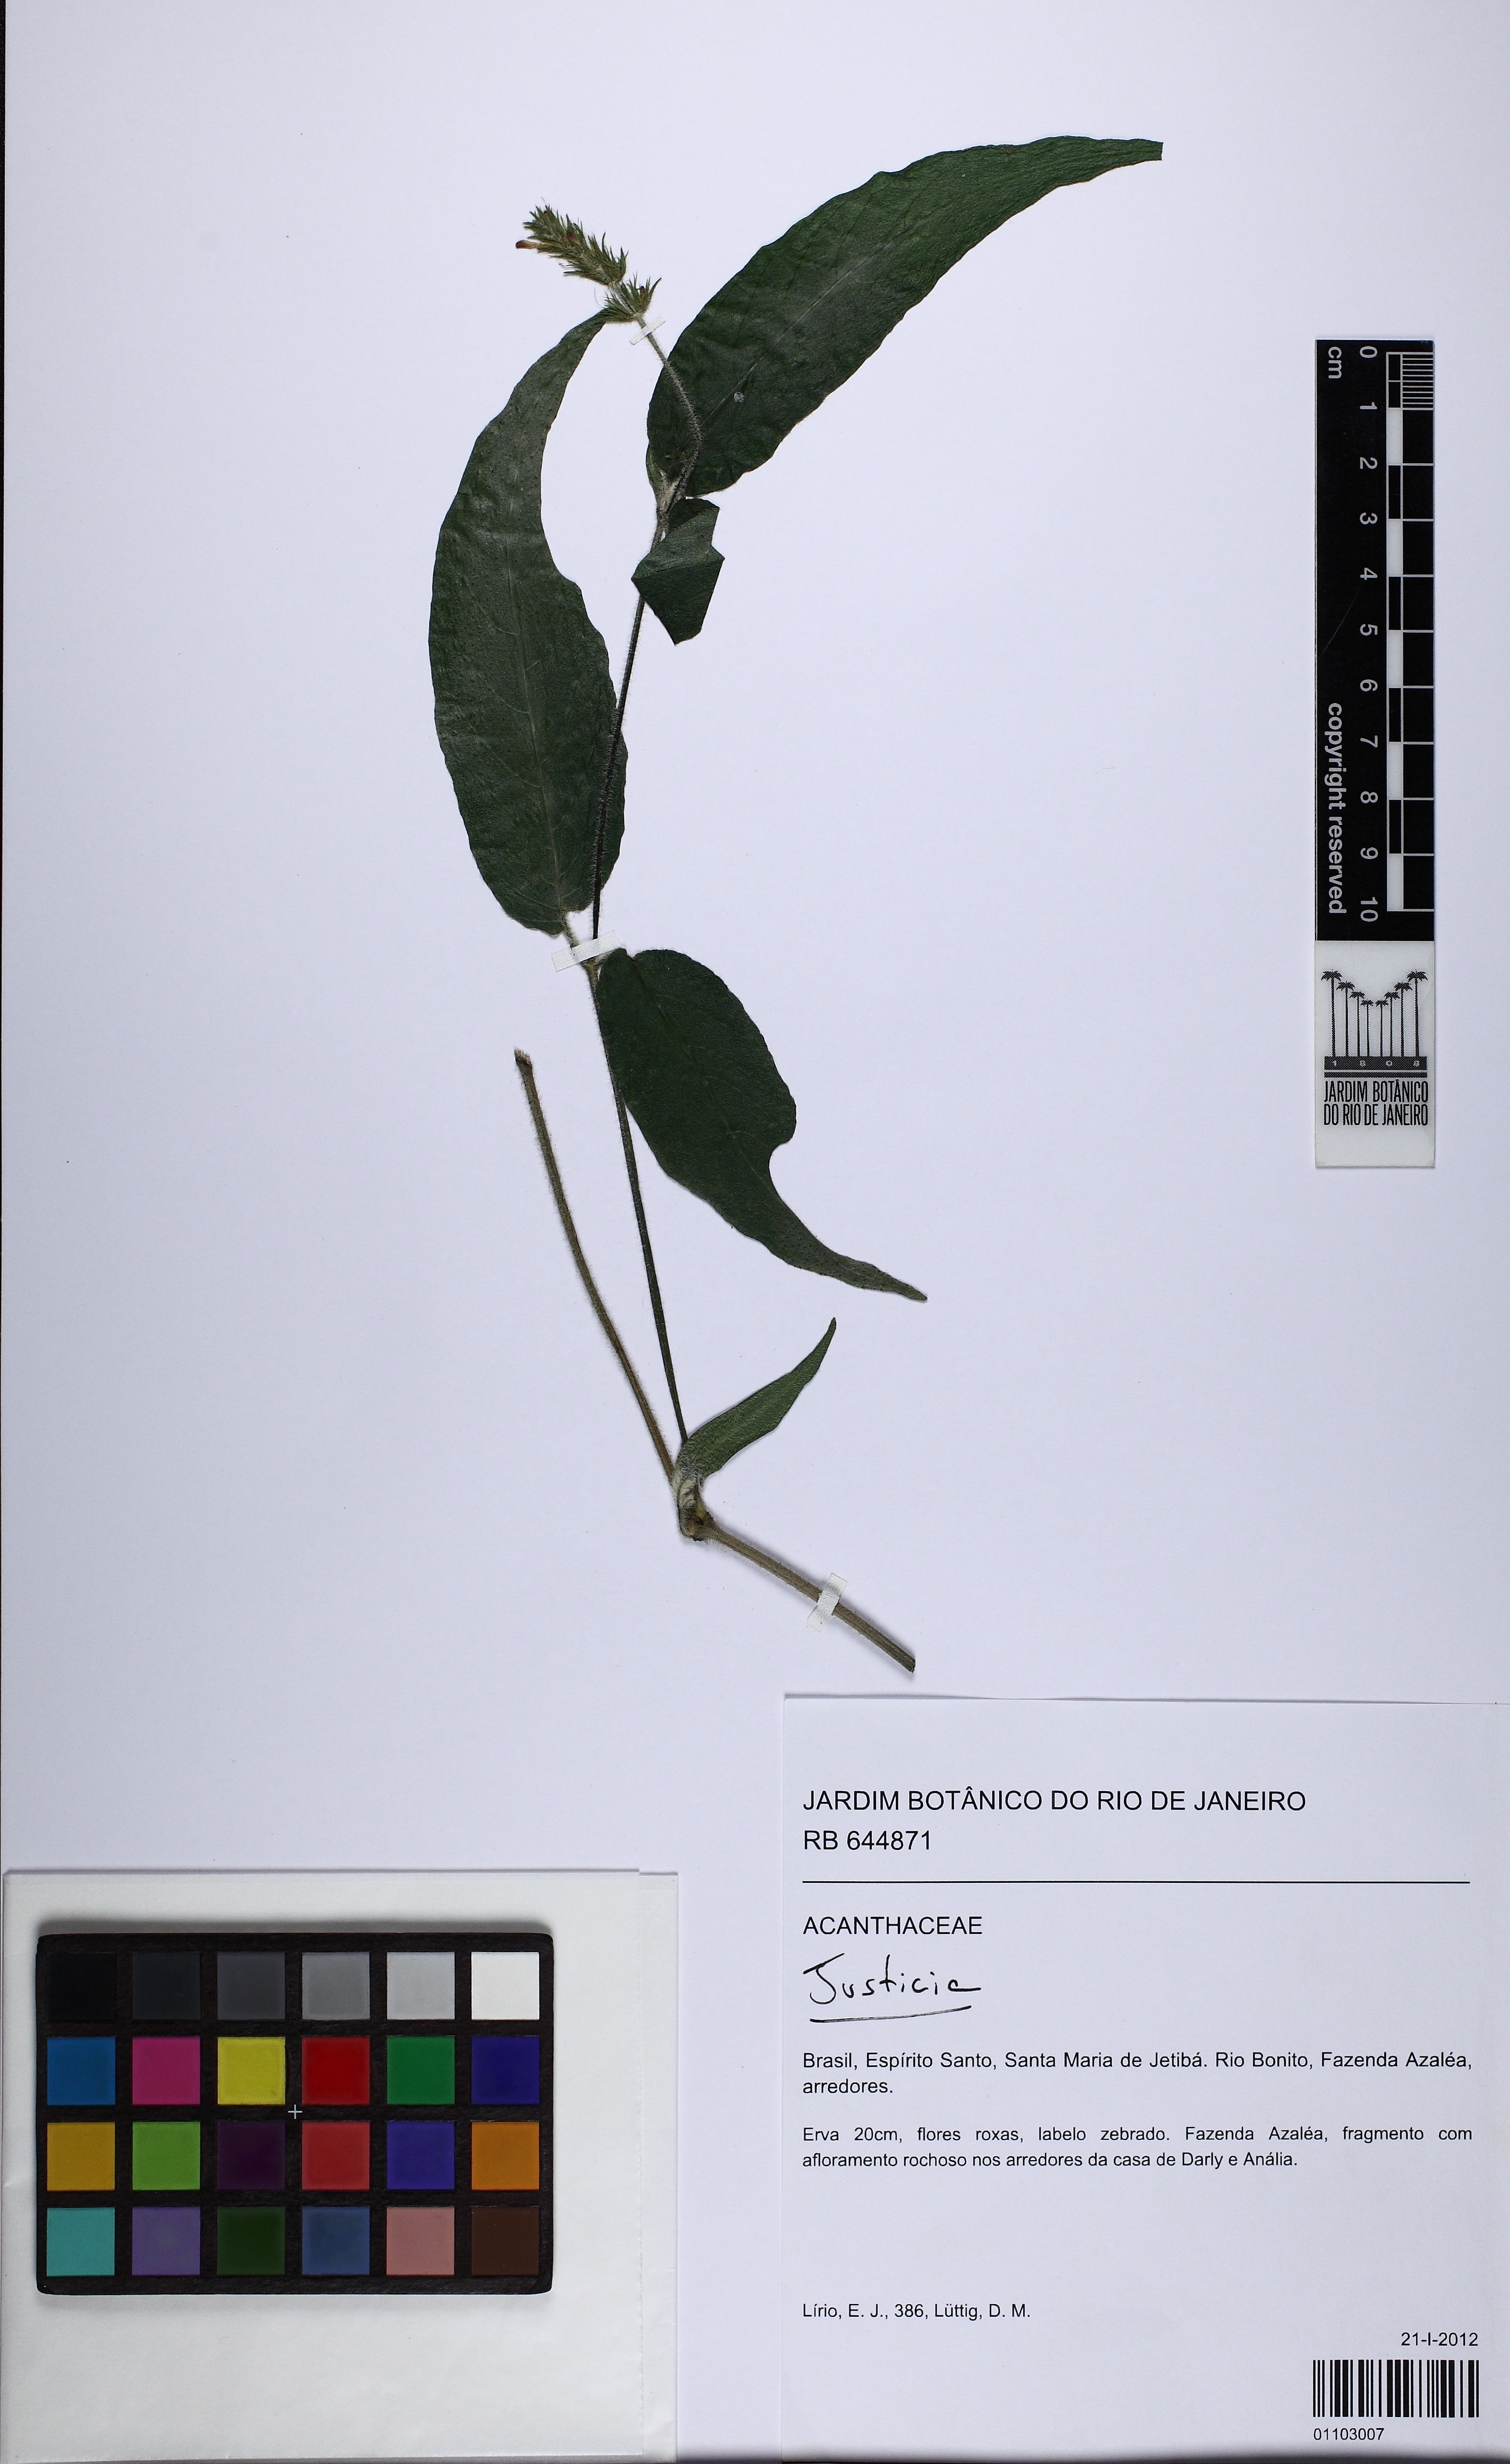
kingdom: Plantae
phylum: Tracheophyta
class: Magnoliopsida
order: Lamiales
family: Acanthaceae
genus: Justicia
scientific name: Justicia
